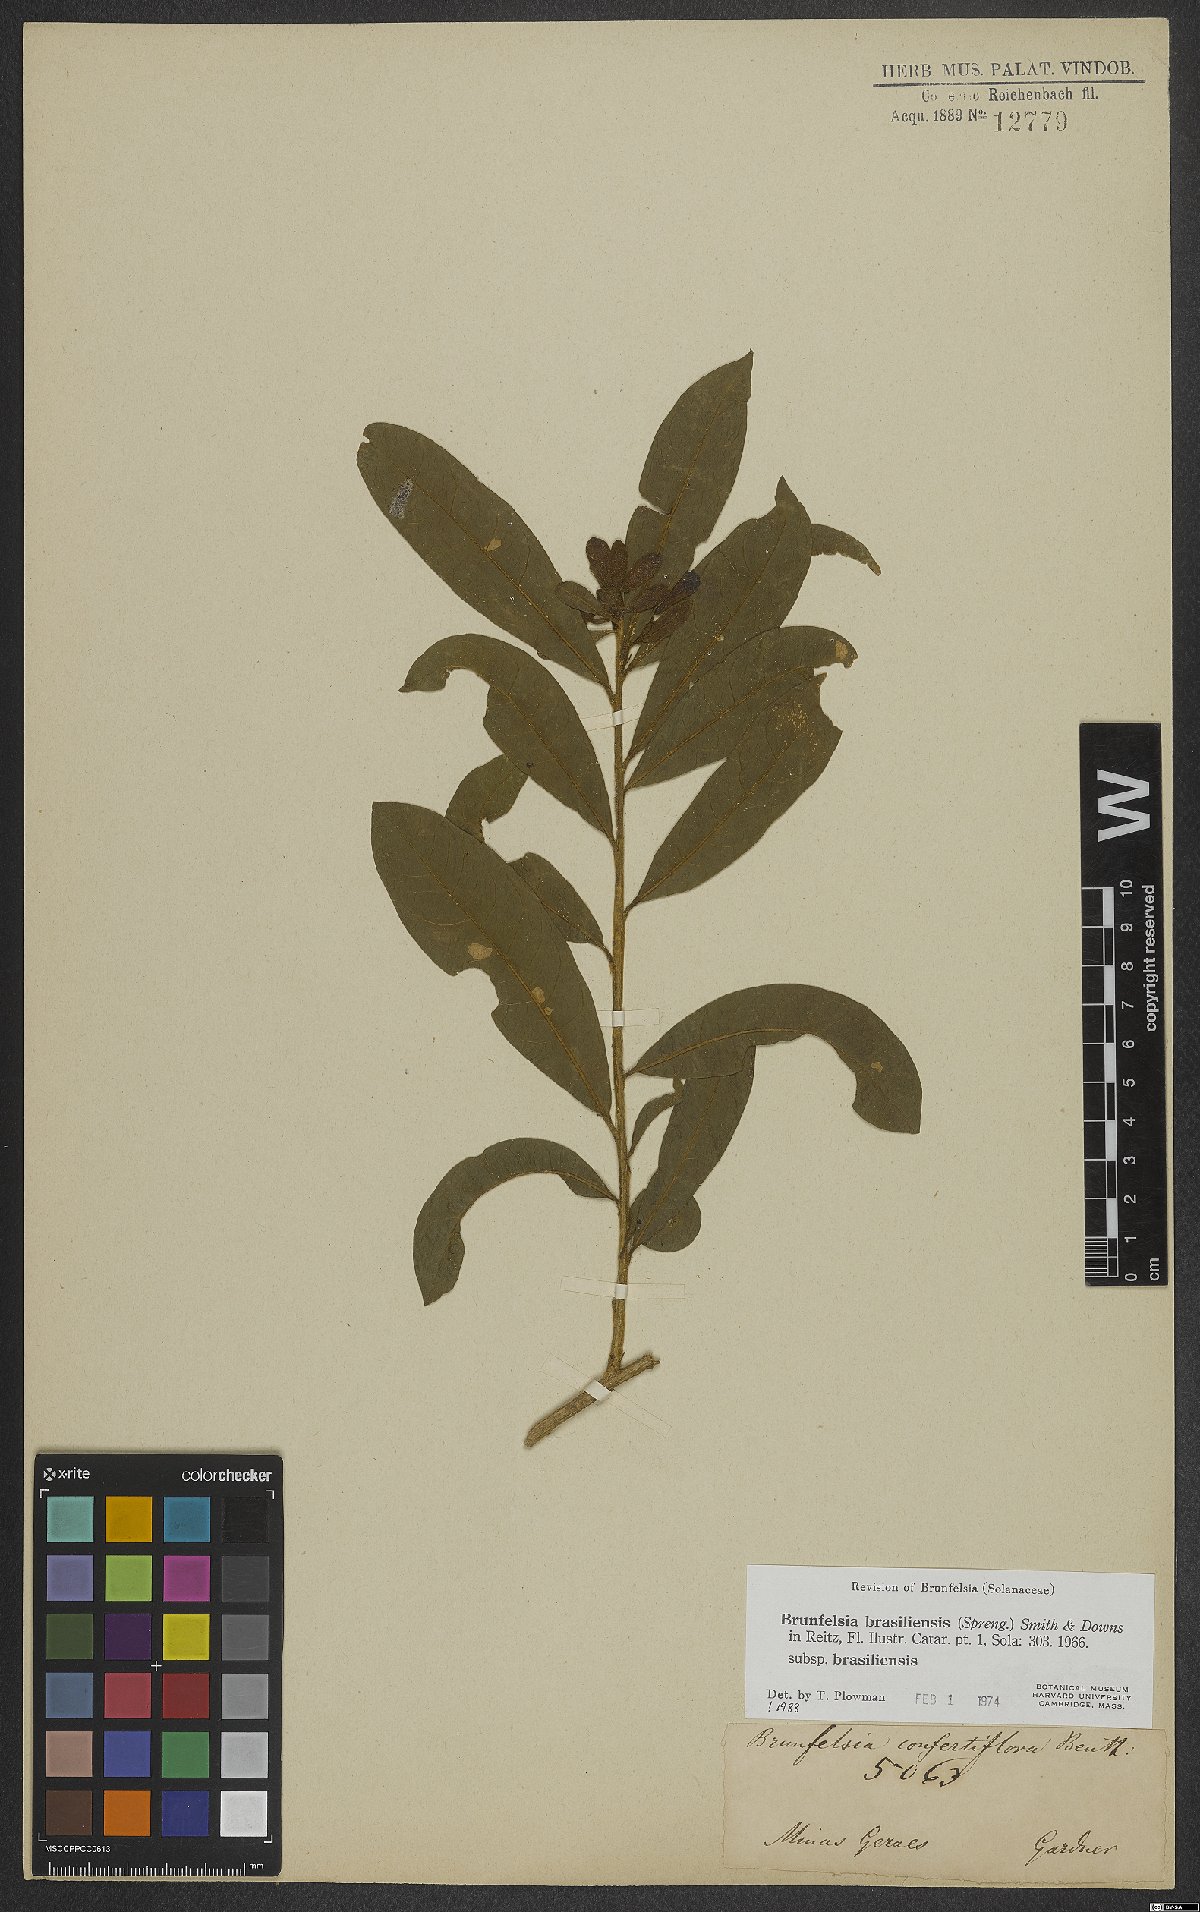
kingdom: Plantae
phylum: Tracheophyta
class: Magnoliopsida
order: Solanales
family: Solanaceae
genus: Brunfelsia
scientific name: Brunfelsia brasiliensis
